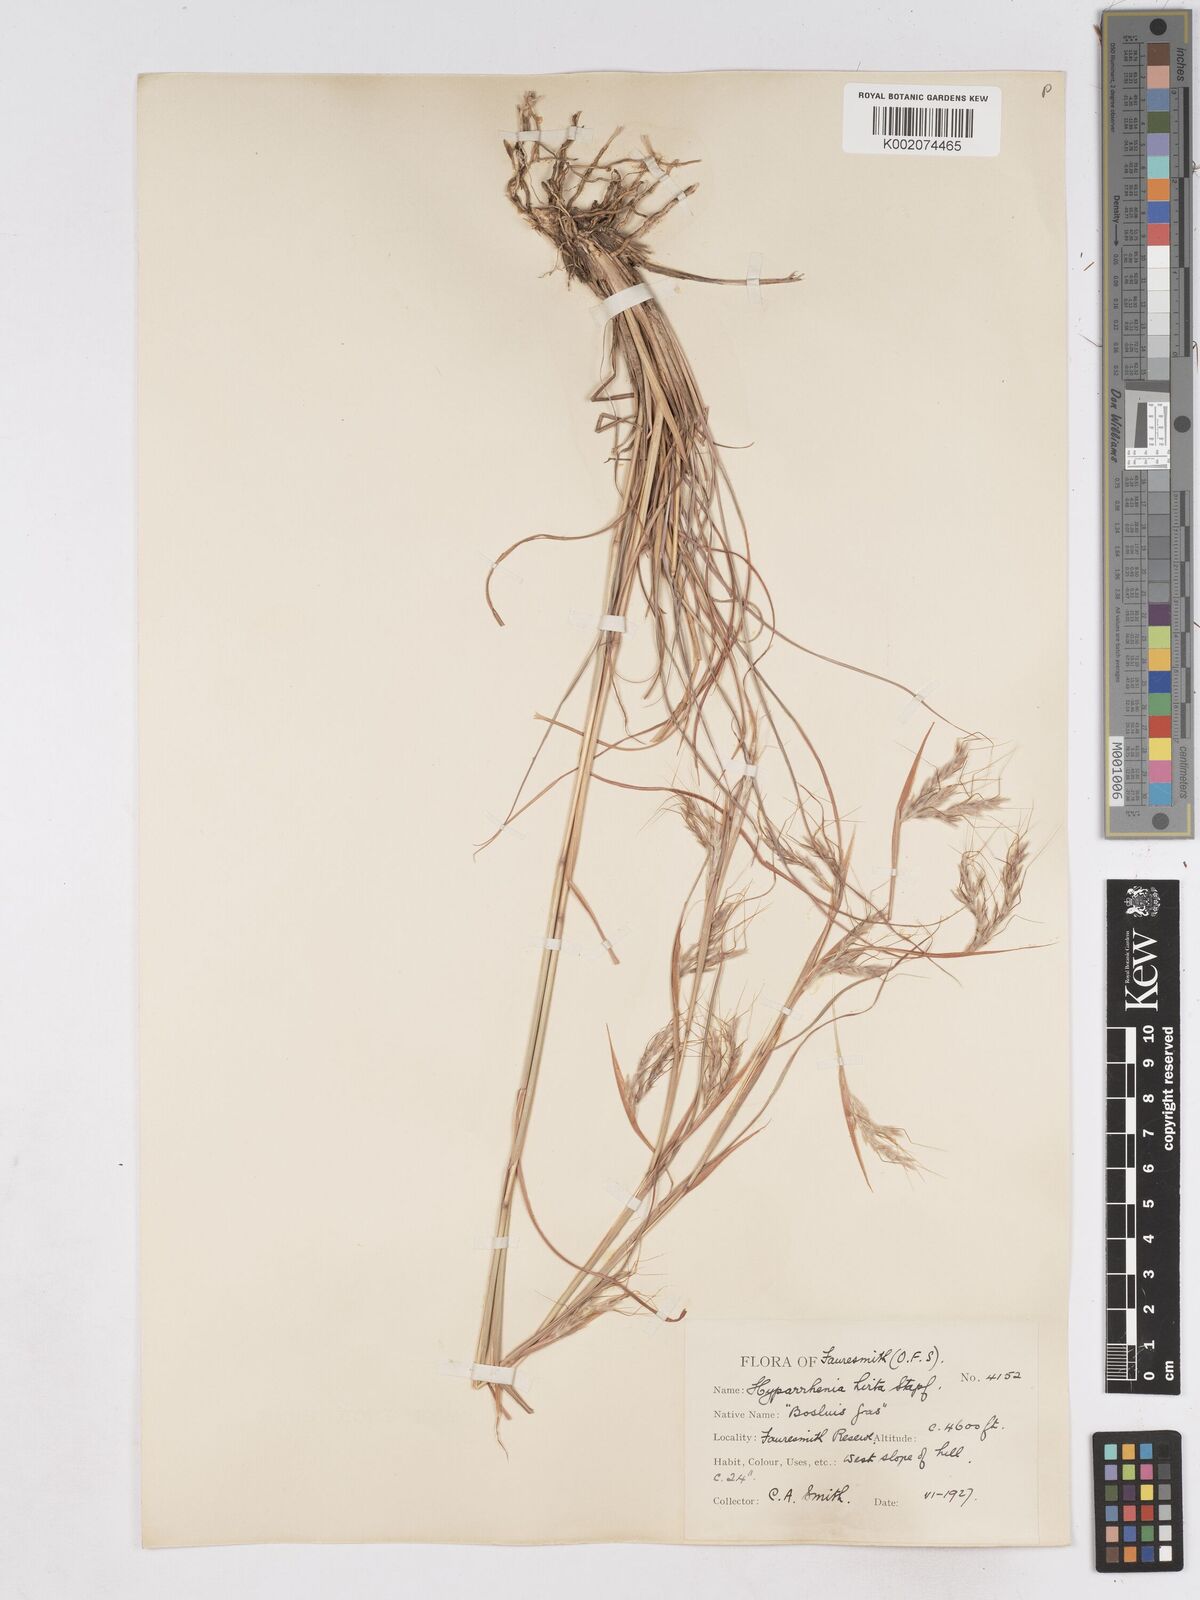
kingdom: Plantae
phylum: Tracheophyta
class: Liliopsida
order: Poales
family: Poaceae
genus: Hyparrhenia
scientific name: Hyparrhenia hirta
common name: Thatching grass
